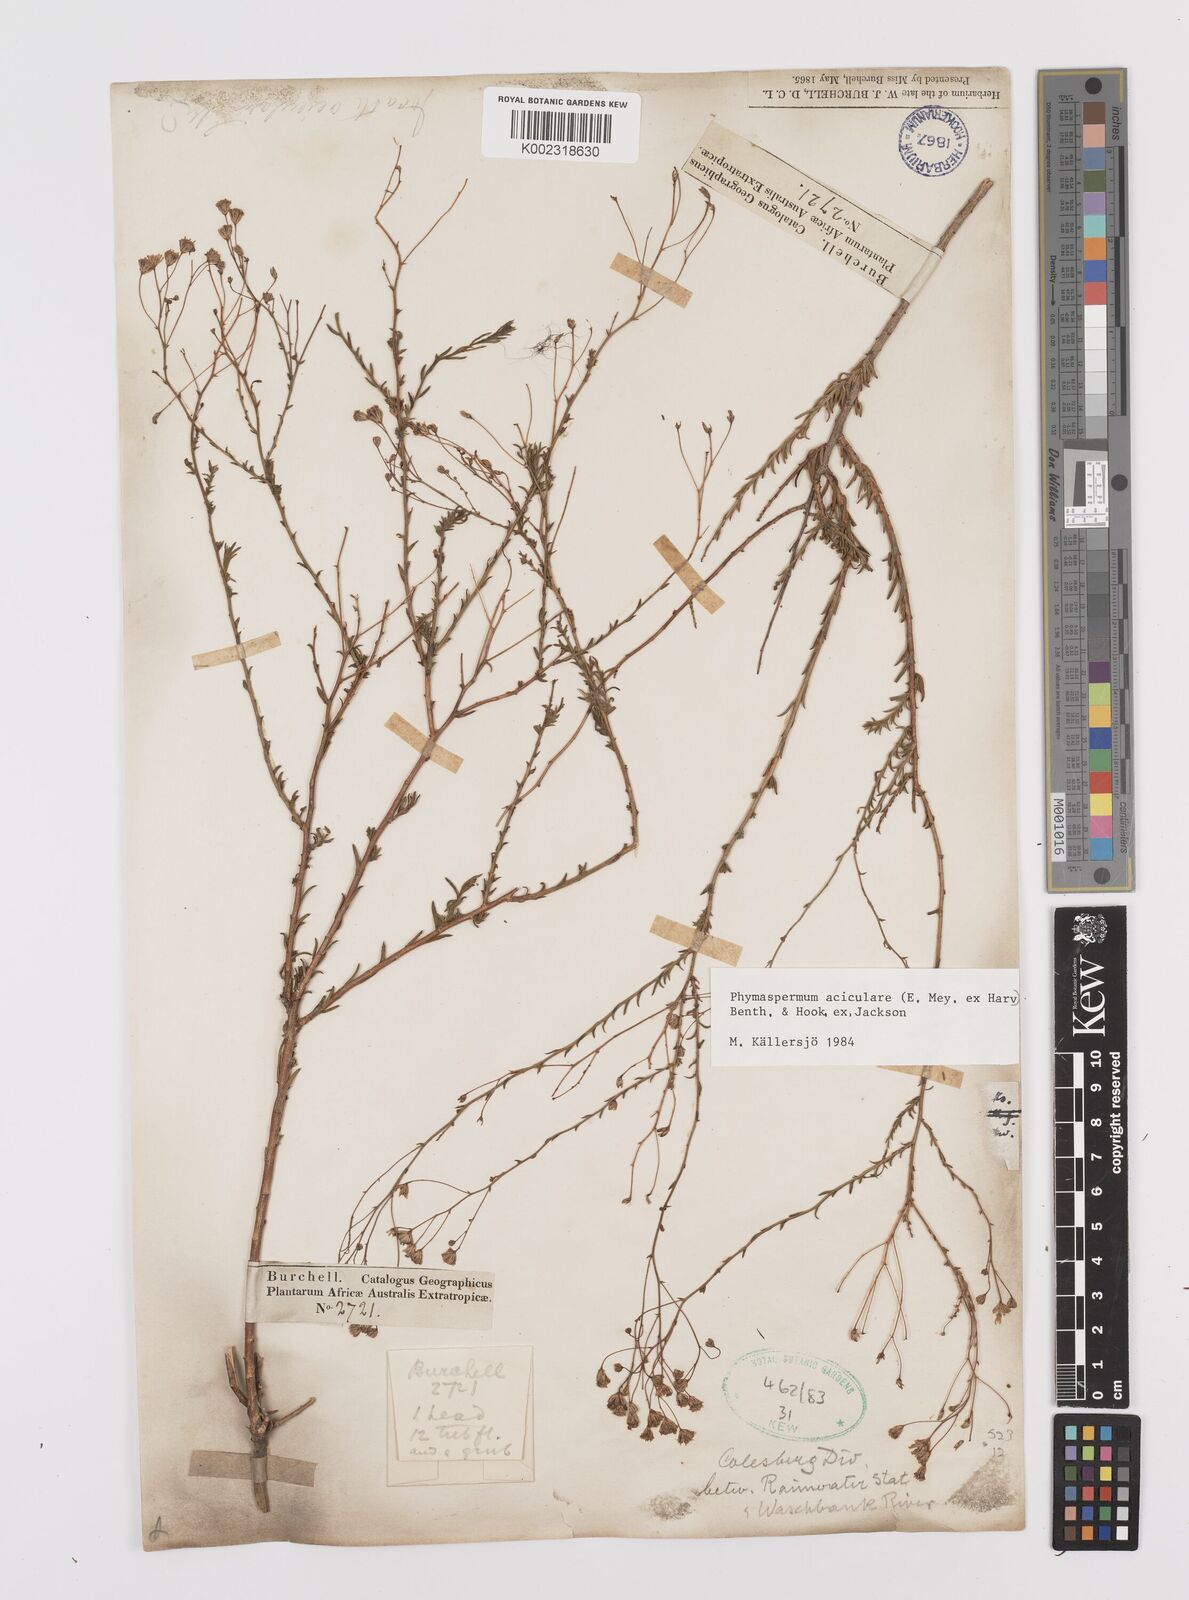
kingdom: Plantae
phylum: Tracheophyta
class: Magnoliopsida
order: Asterales
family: Asteraceae
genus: Phymaspermum
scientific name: Phymaspermum aciculare
